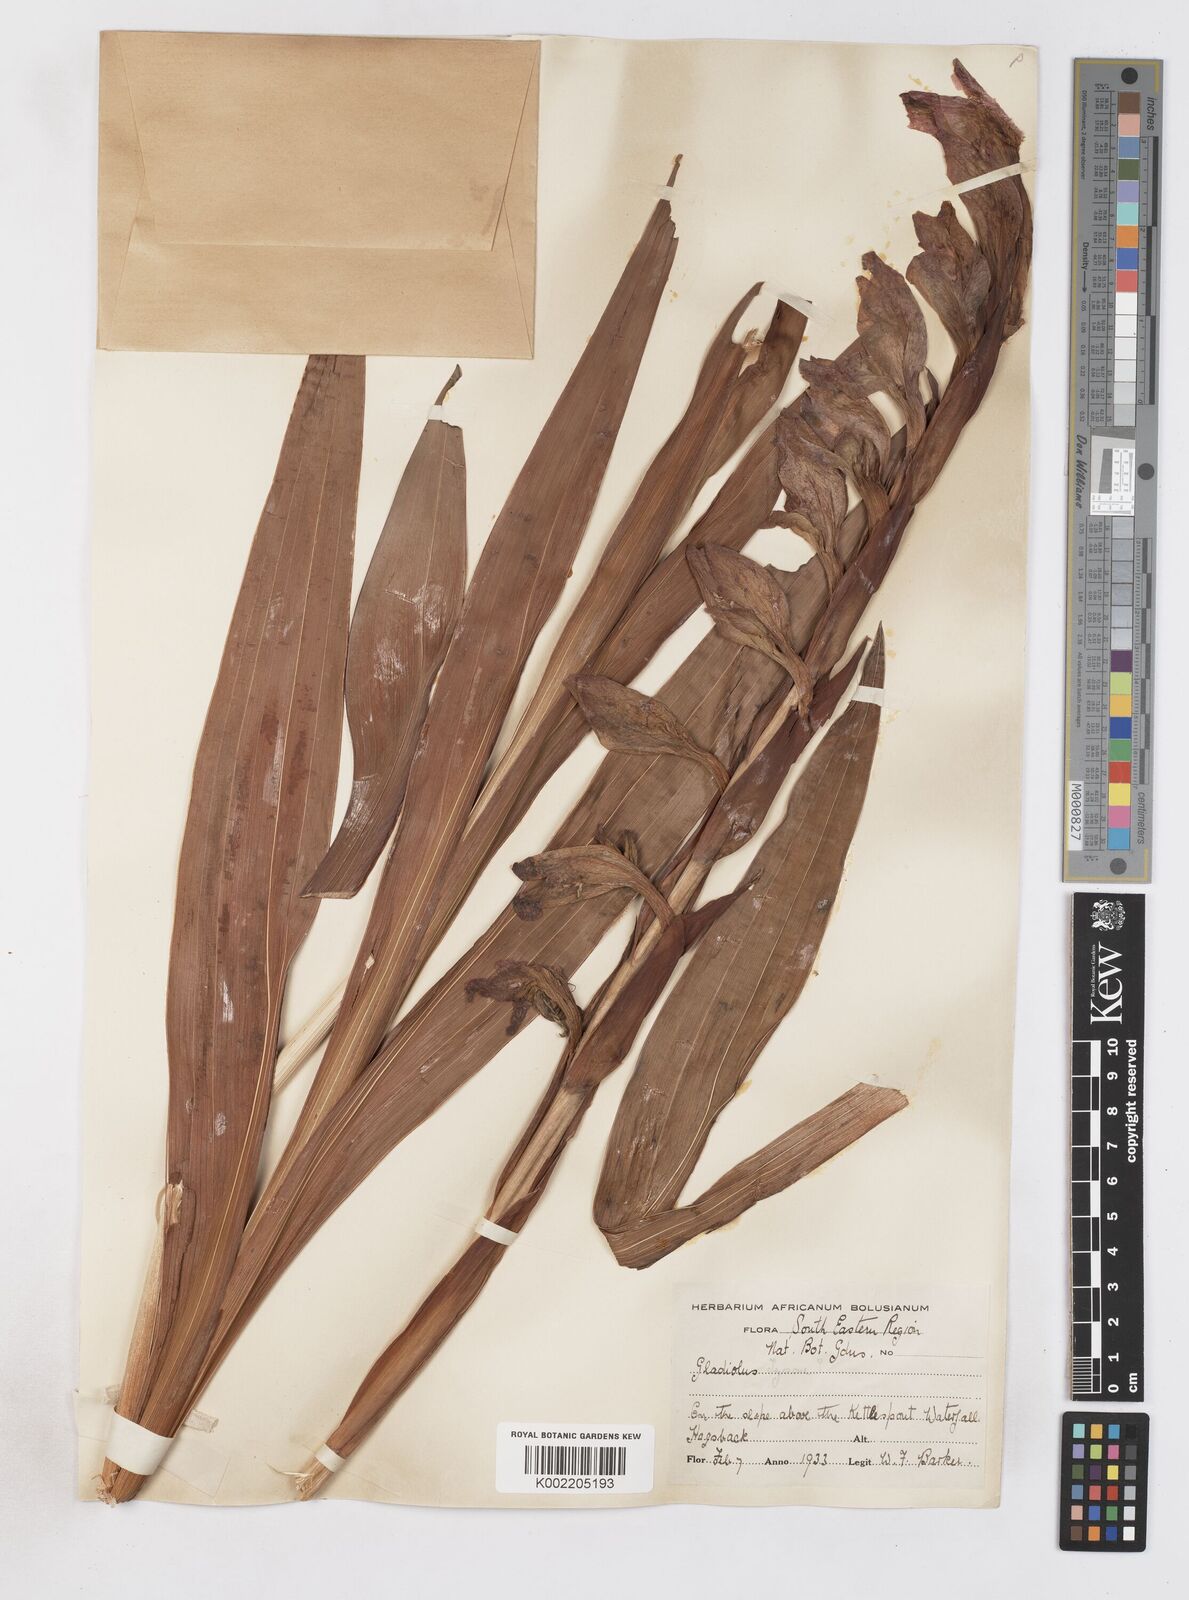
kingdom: Plantae
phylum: Tracheophyta
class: Liliopsida
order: Asparagales
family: Iridaceae
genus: Gladiolus
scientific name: Gladiolus dalenii
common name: Cornflag
